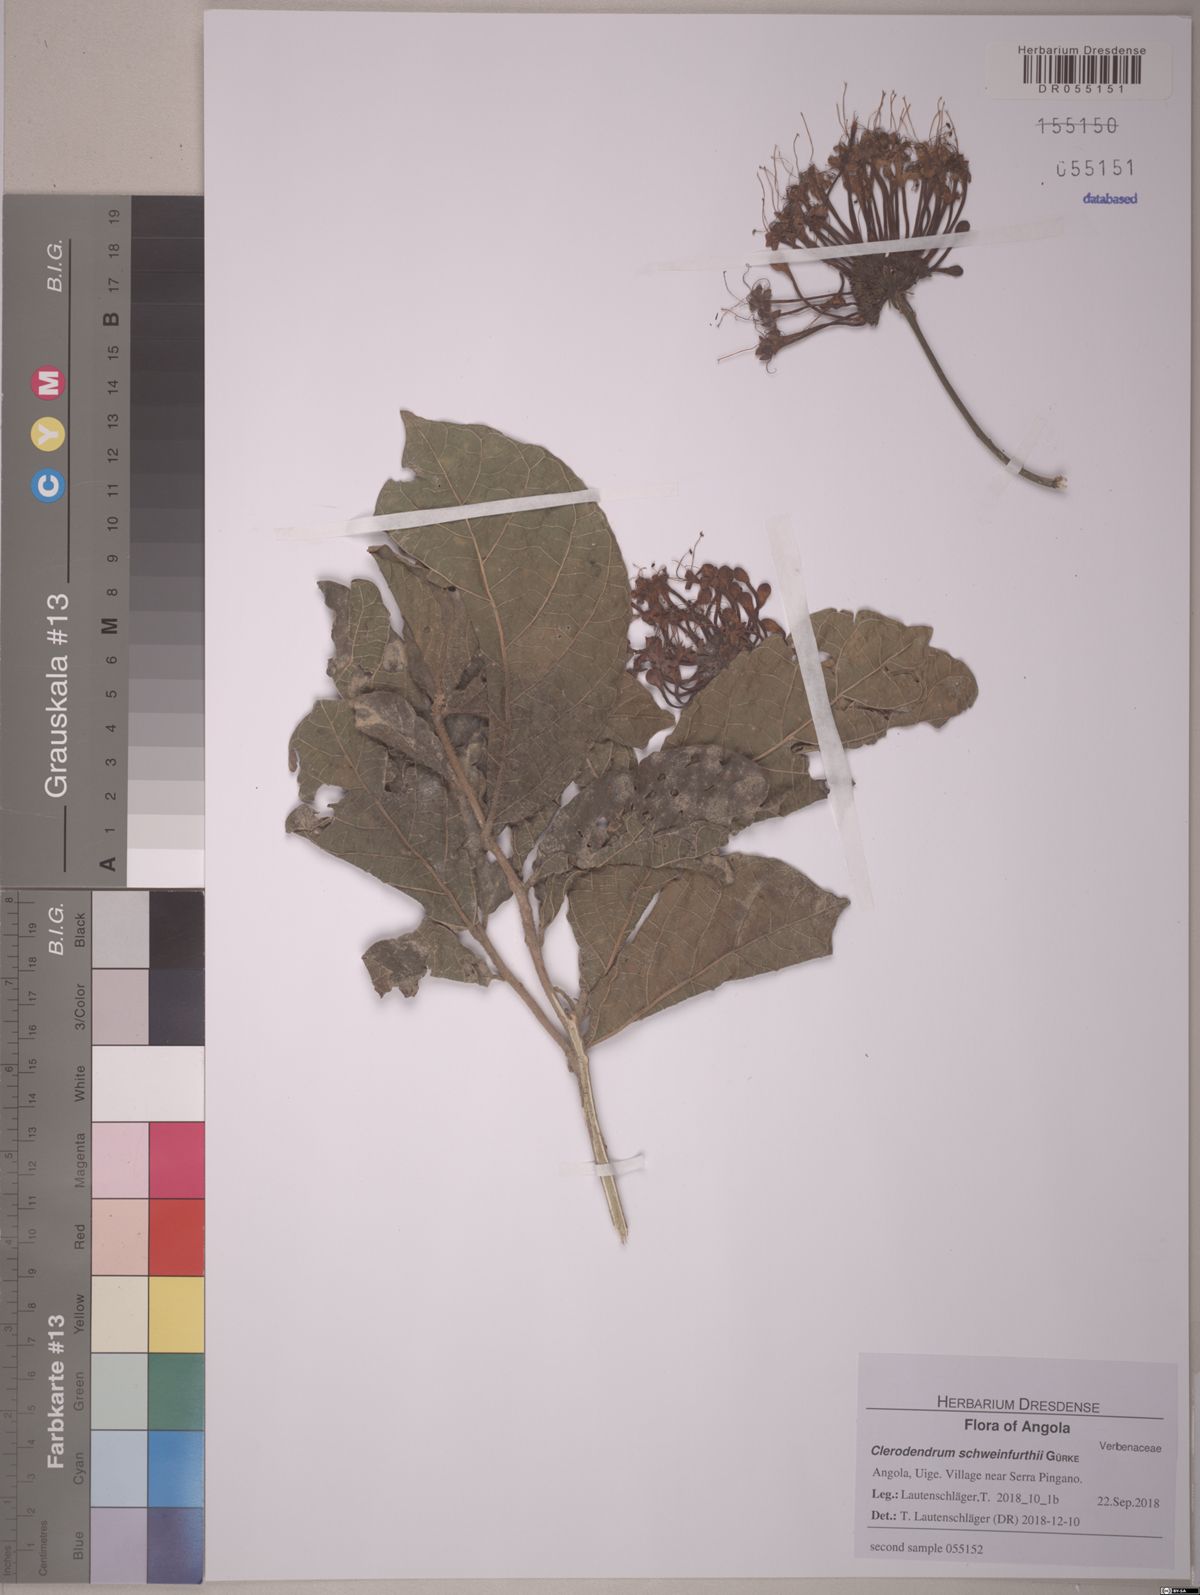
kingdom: Plantae
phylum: Tracheophyta
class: Magnoliopsida
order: Lamiales
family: Lamiaceae
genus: Clerodendrum
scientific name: Clerodendrum schweinfurthii
